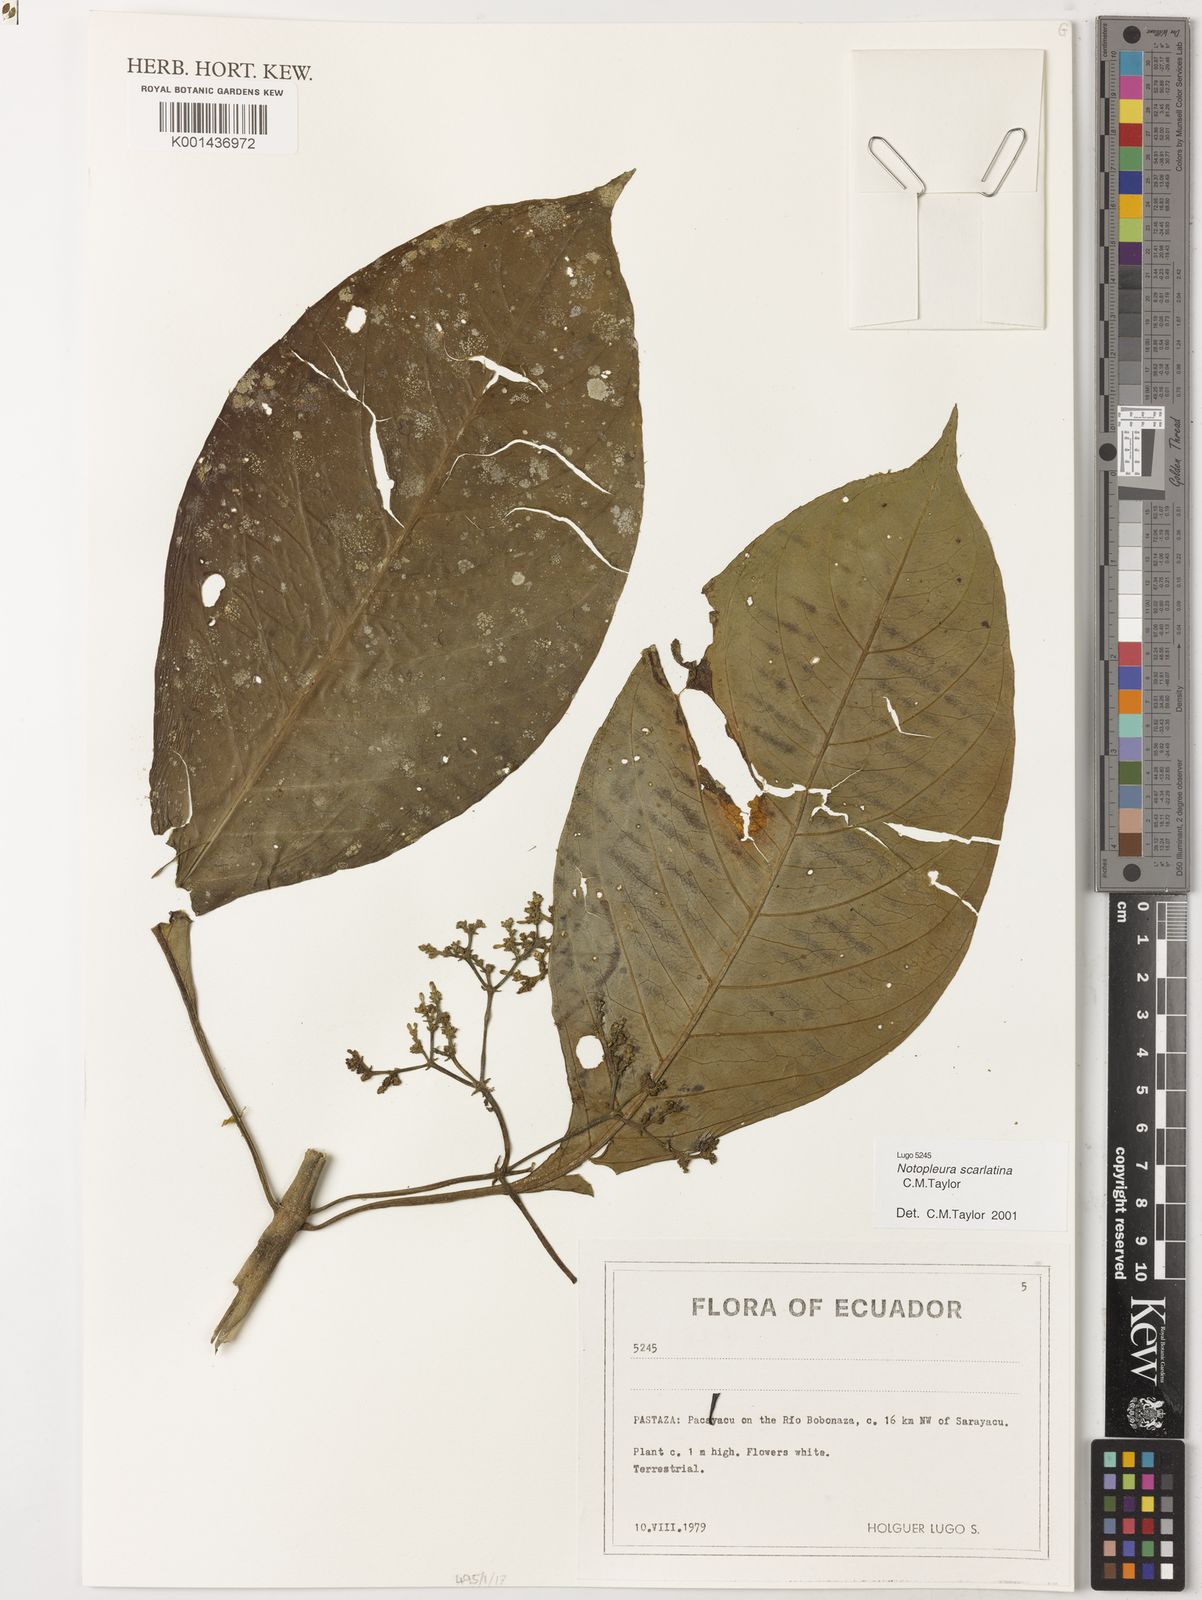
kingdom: Plantae
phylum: Tracheophyta
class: Magnoliopsida
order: Gentianales
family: Rubiaceae
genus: Notopleura
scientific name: Notopleura scarlatina
